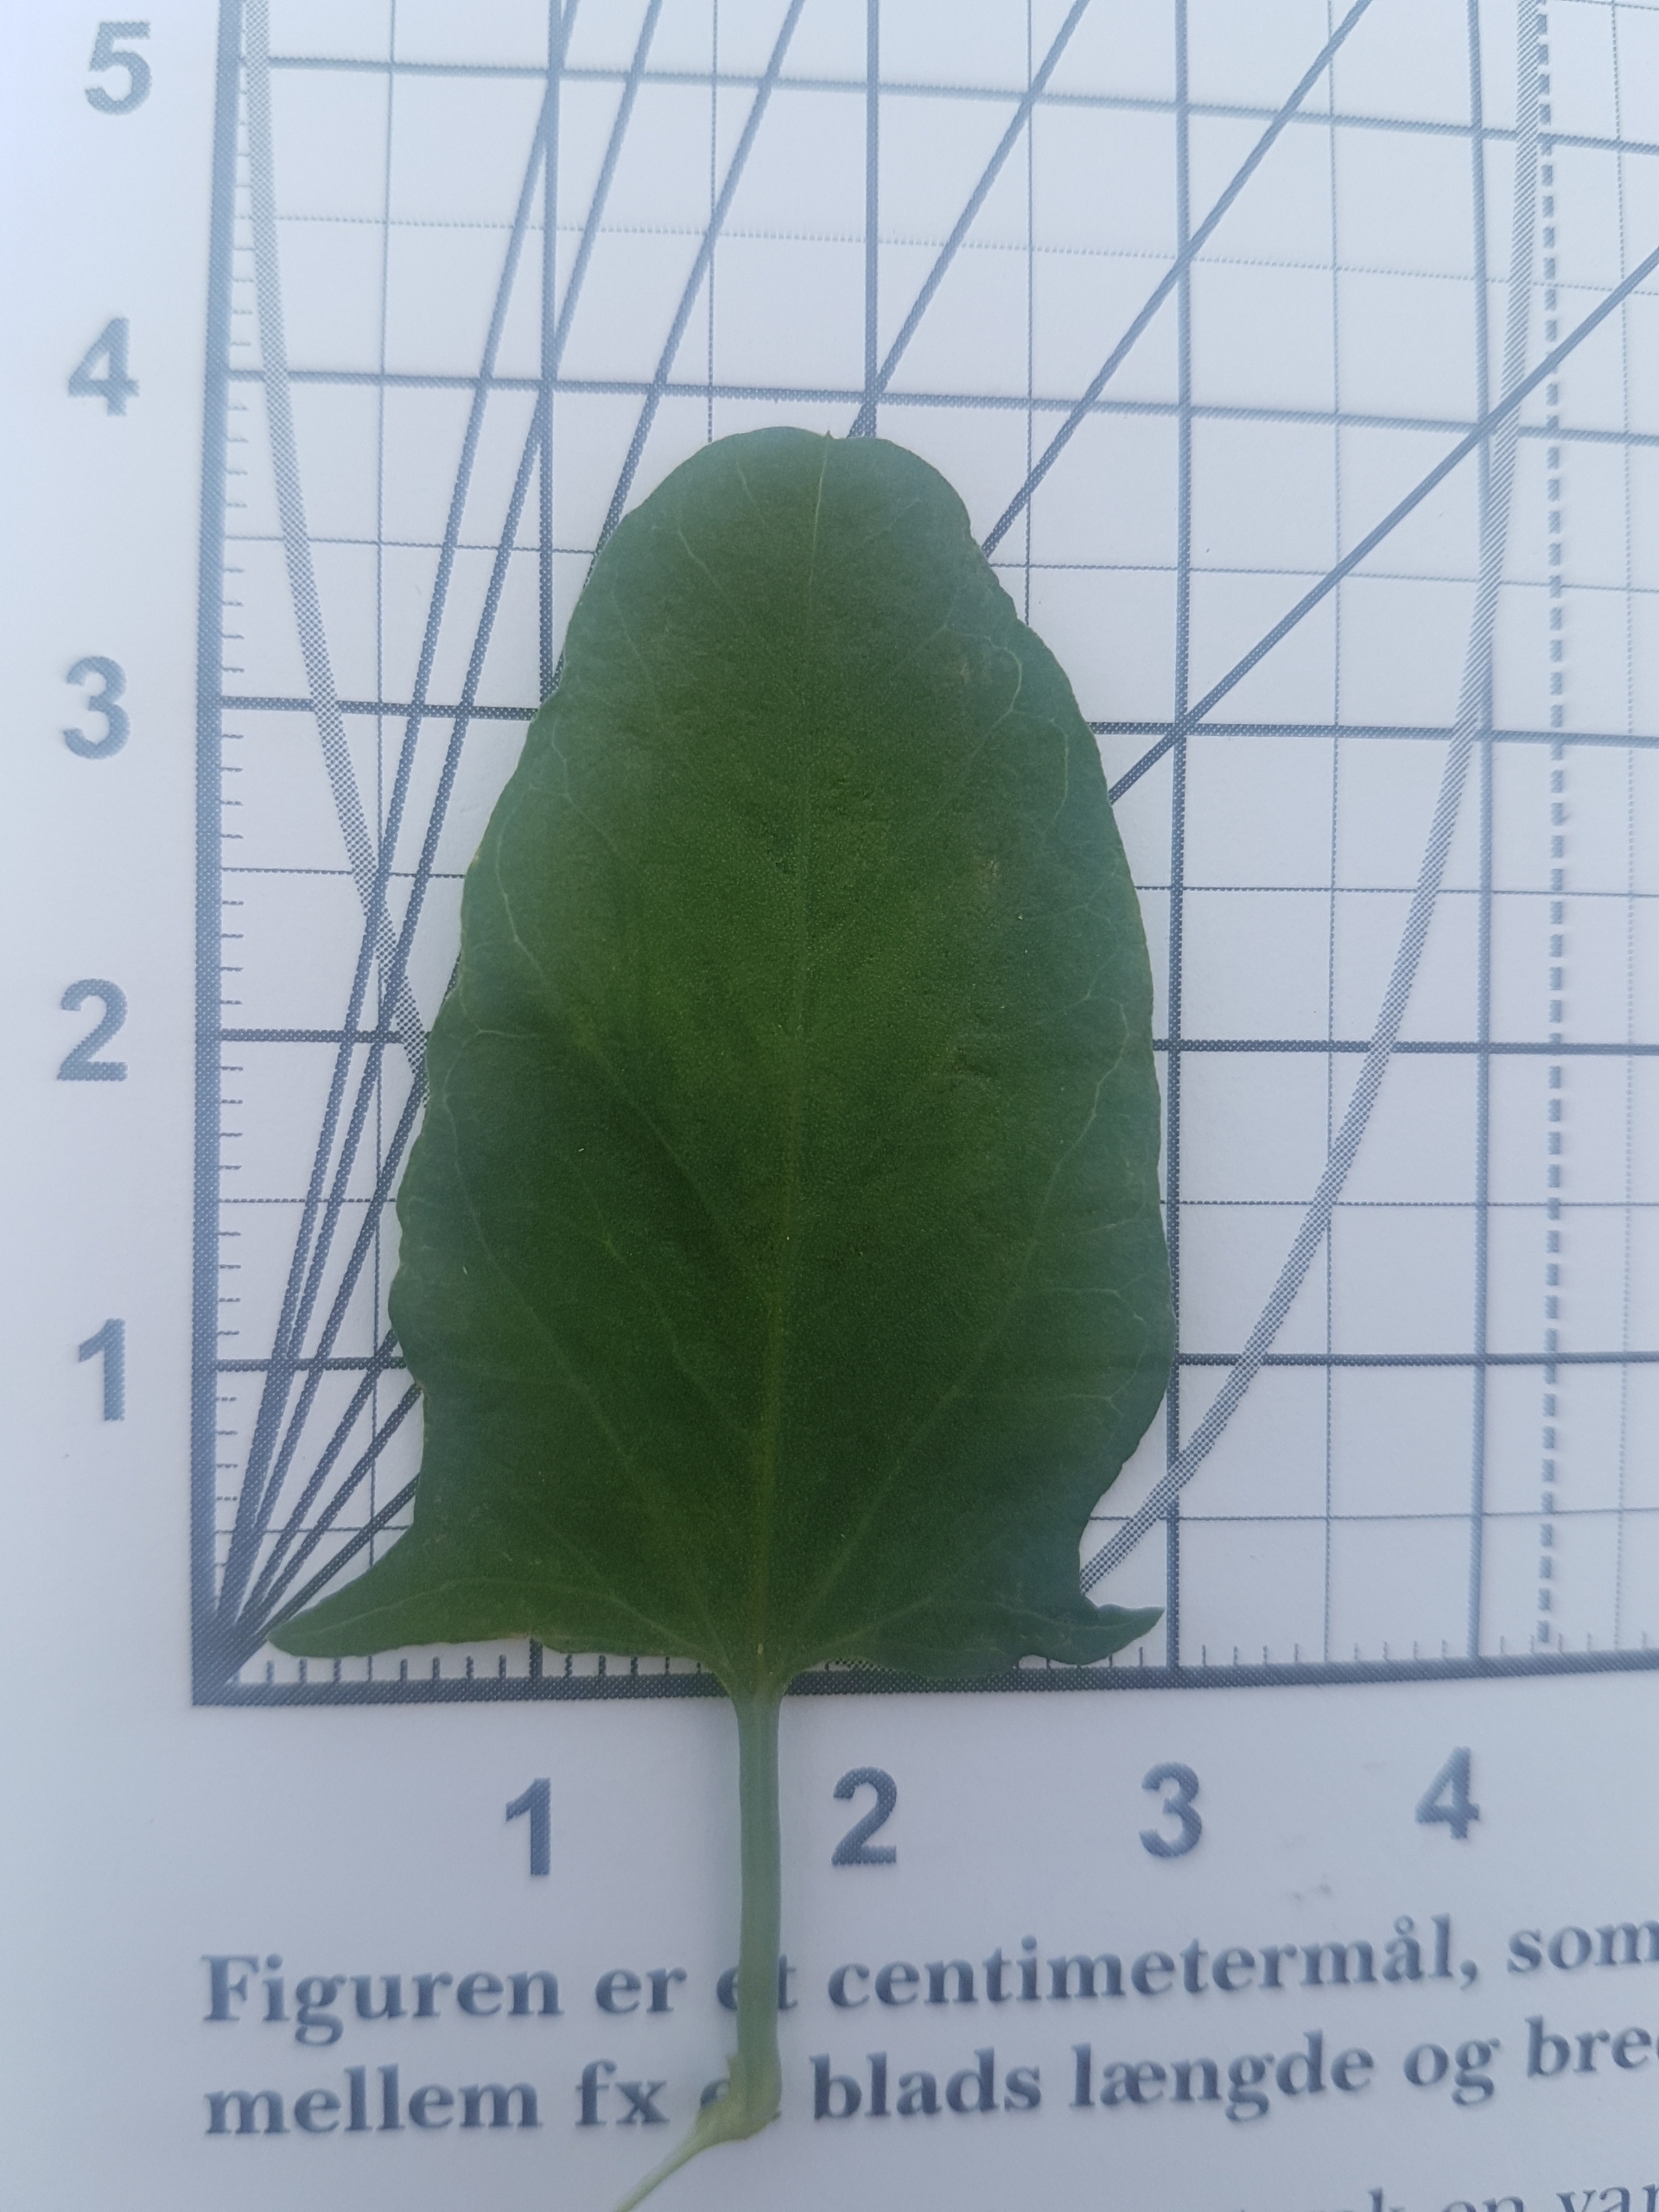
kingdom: Plantae
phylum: Tracheophyta
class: Magnoliopsida
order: Solanales
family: Convolvulaceae
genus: Convolvulus
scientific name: Convolvulus arvensis
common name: Ager-snerle
